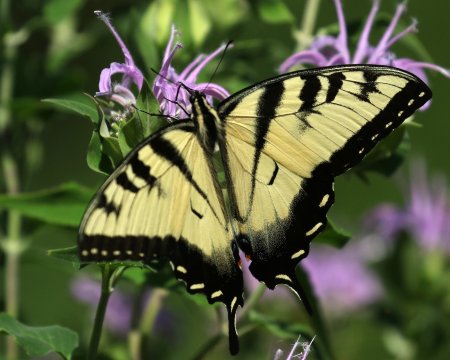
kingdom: Animalia
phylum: Arthropoda
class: Insecta
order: Lepidoptera
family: Papilionidae
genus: Pterourus
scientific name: Pterourus glaucus
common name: Eastern Tiger Swallowtail
